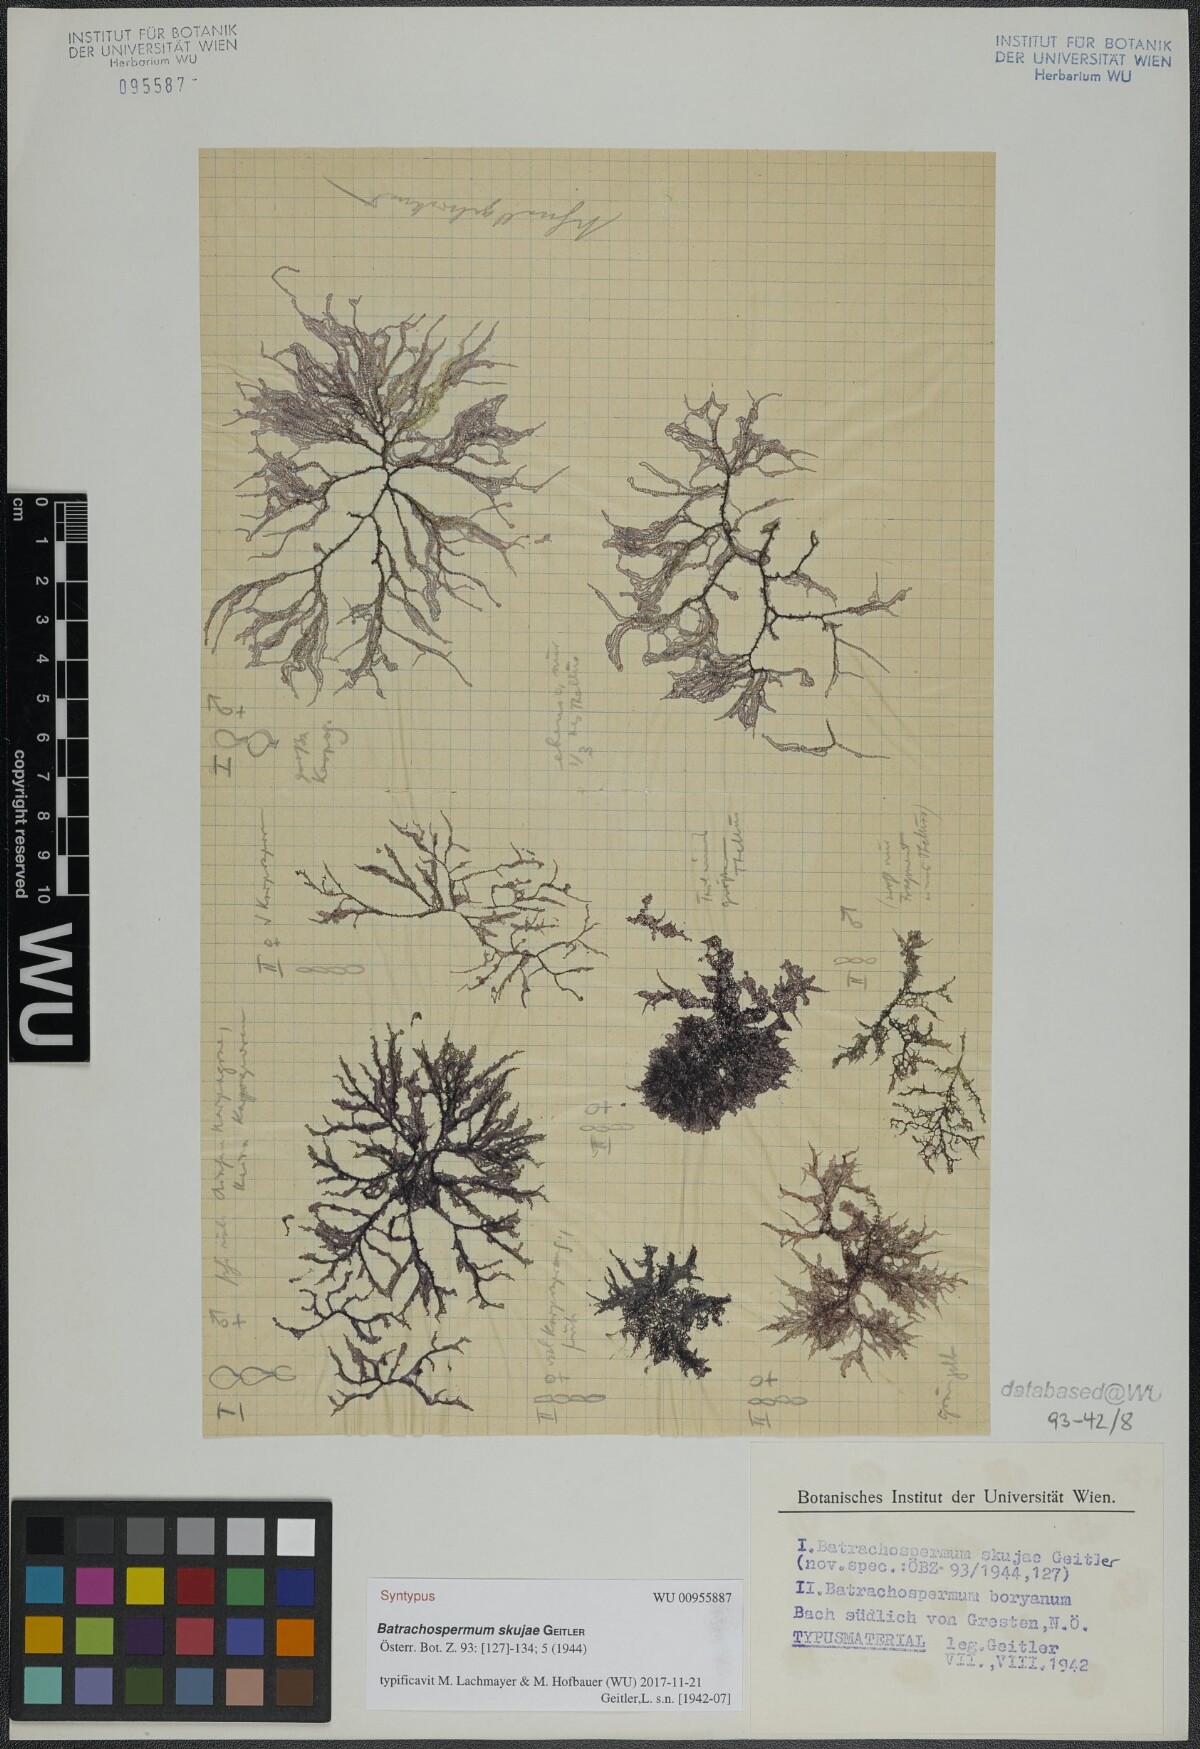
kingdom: Plantae
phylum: Rhodophyta
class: Florideophyceae
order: Batrachospermales
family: Batrachospermaceae
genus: Batrachospermum
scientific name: Batrachospermum gelatinosum
